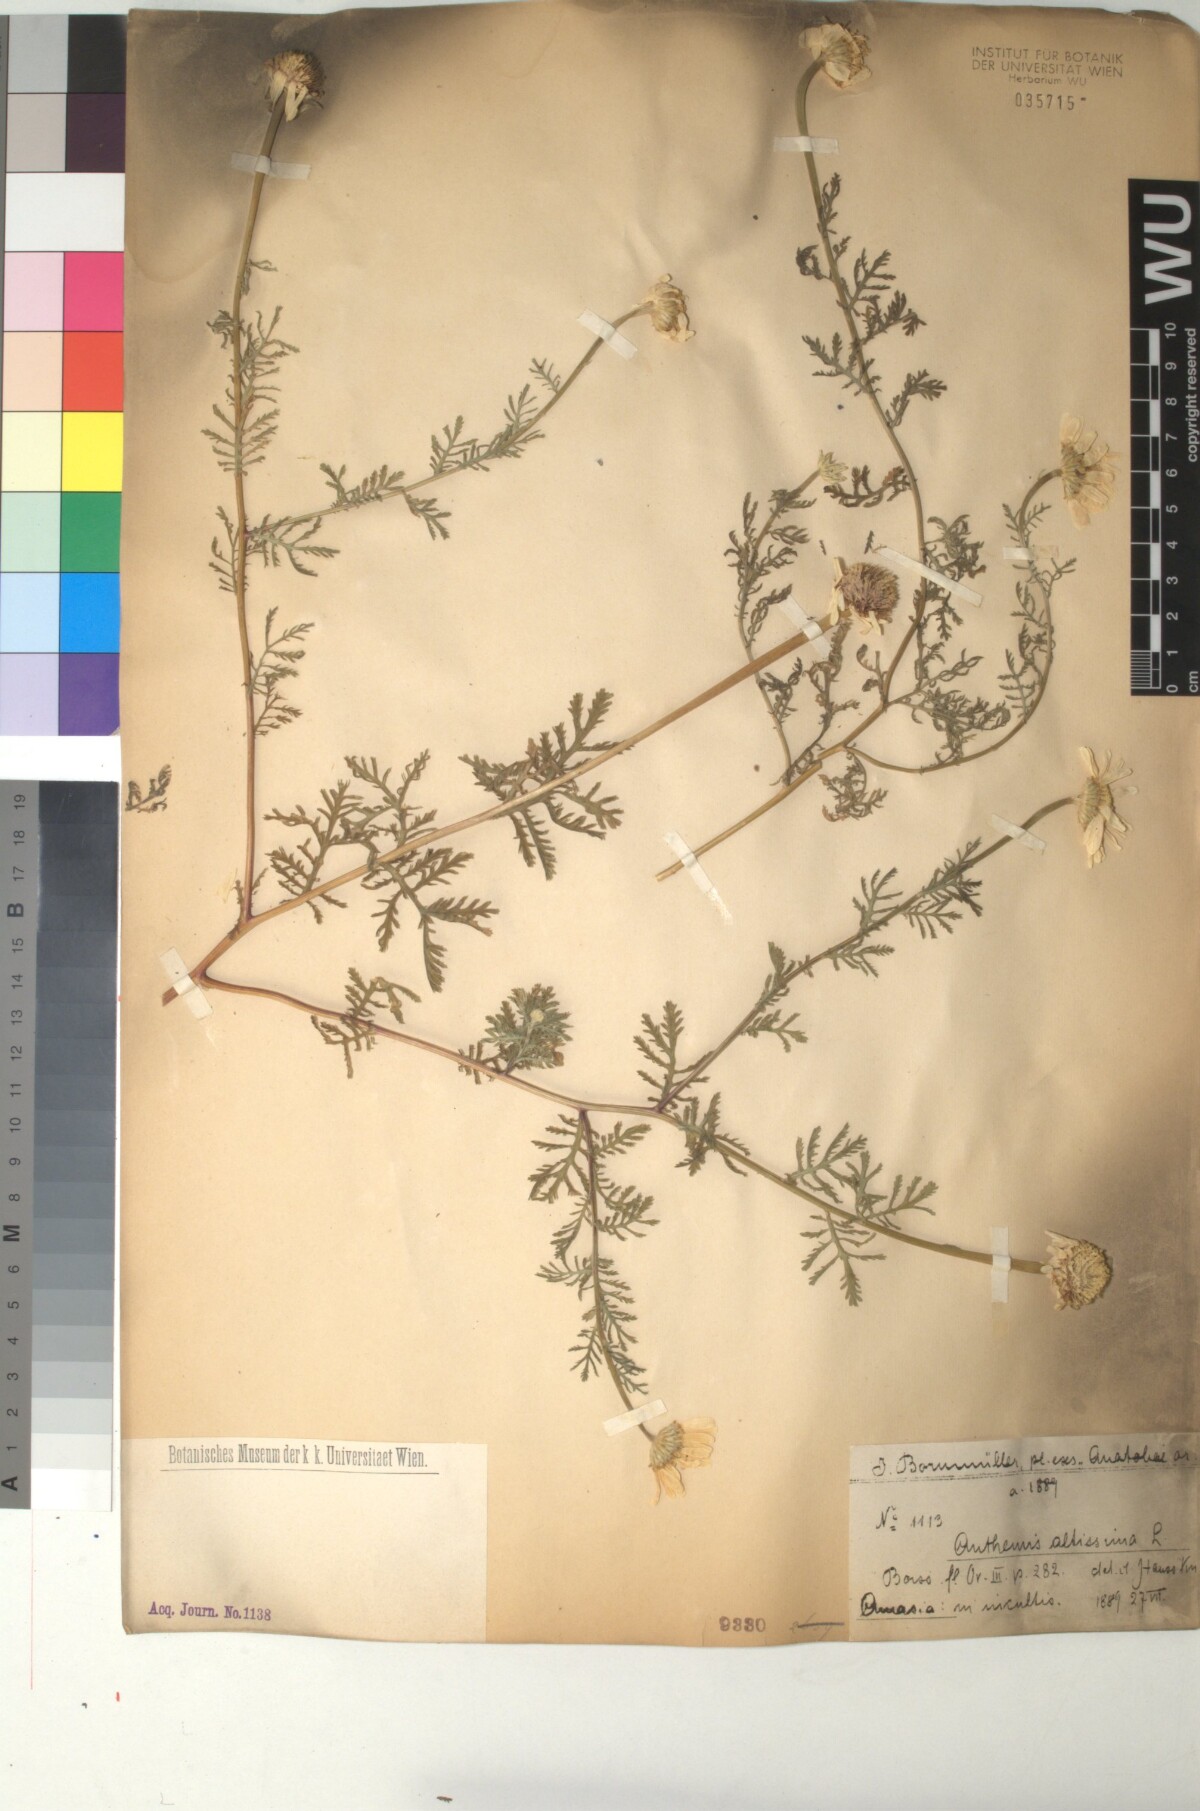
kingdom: Plantae
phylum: Tracheophyta
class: Magnoliopsida
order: Asterales
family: Asteraceae
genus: Cota
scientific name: Cota altissima
